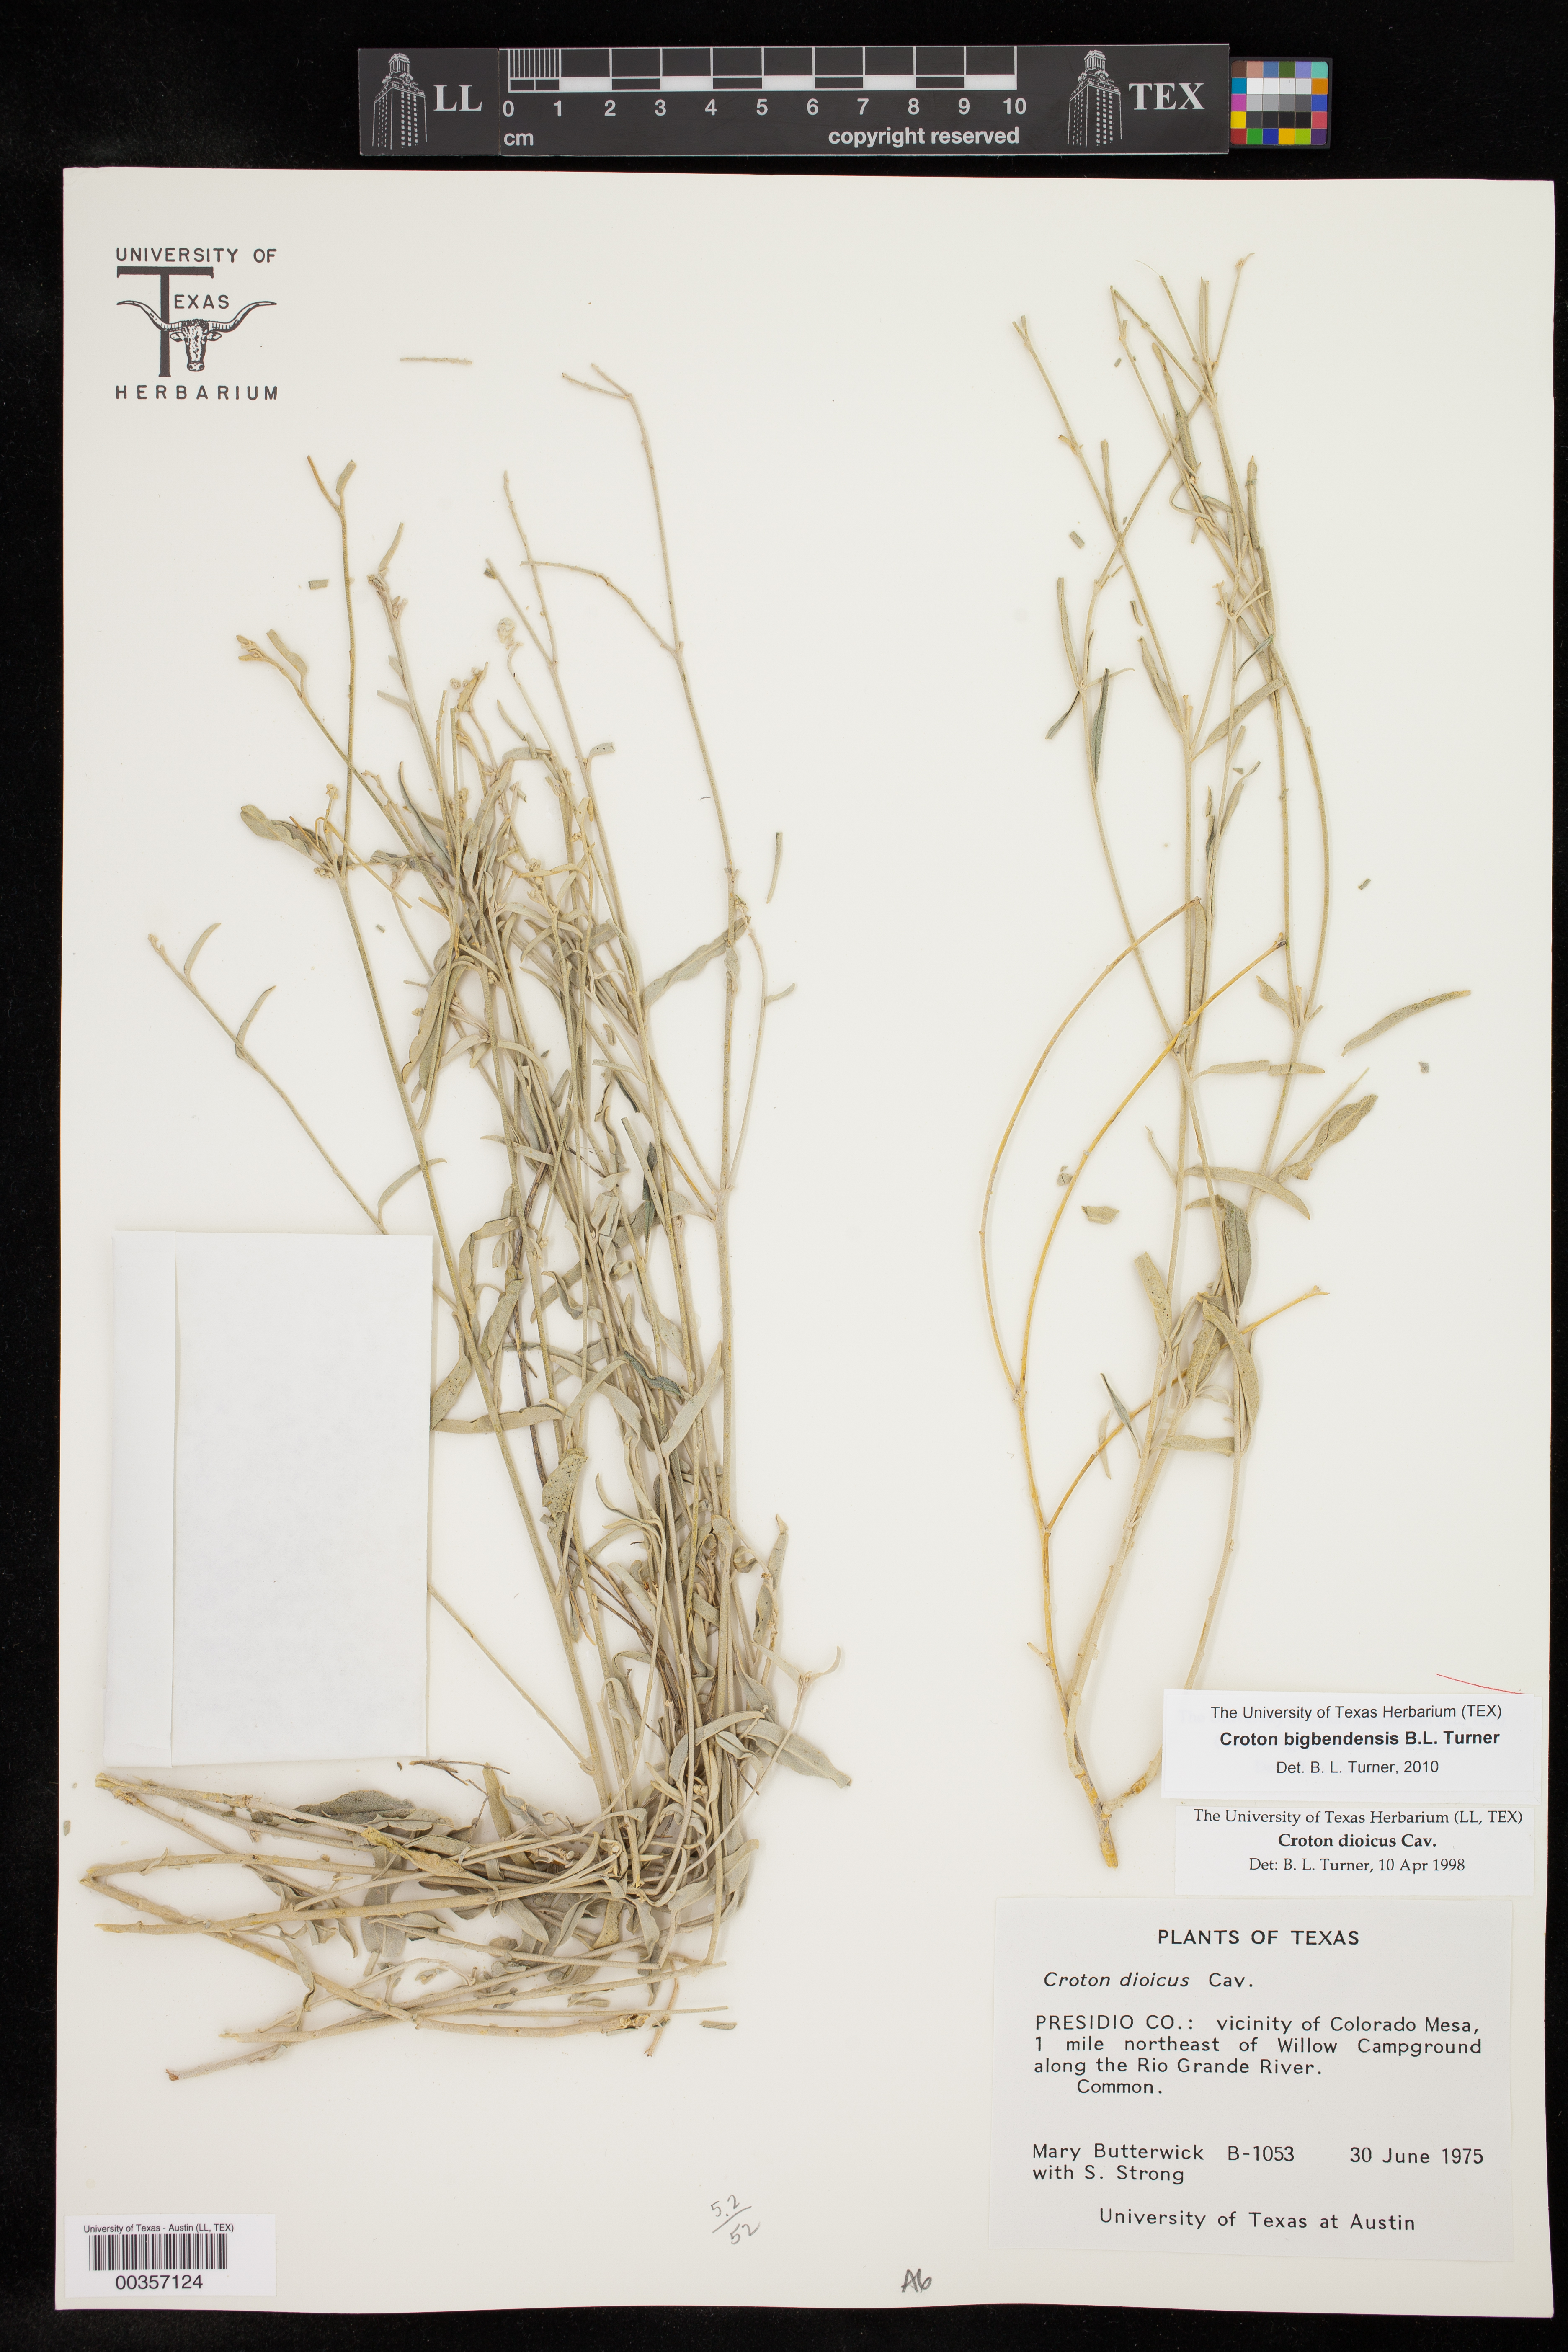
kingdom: Plantae
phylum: Tracheophyta
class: Magnoliopsida
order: Malpighiales
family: Euphorbiaceae
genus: Croton
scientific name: Croton bigbendensis
